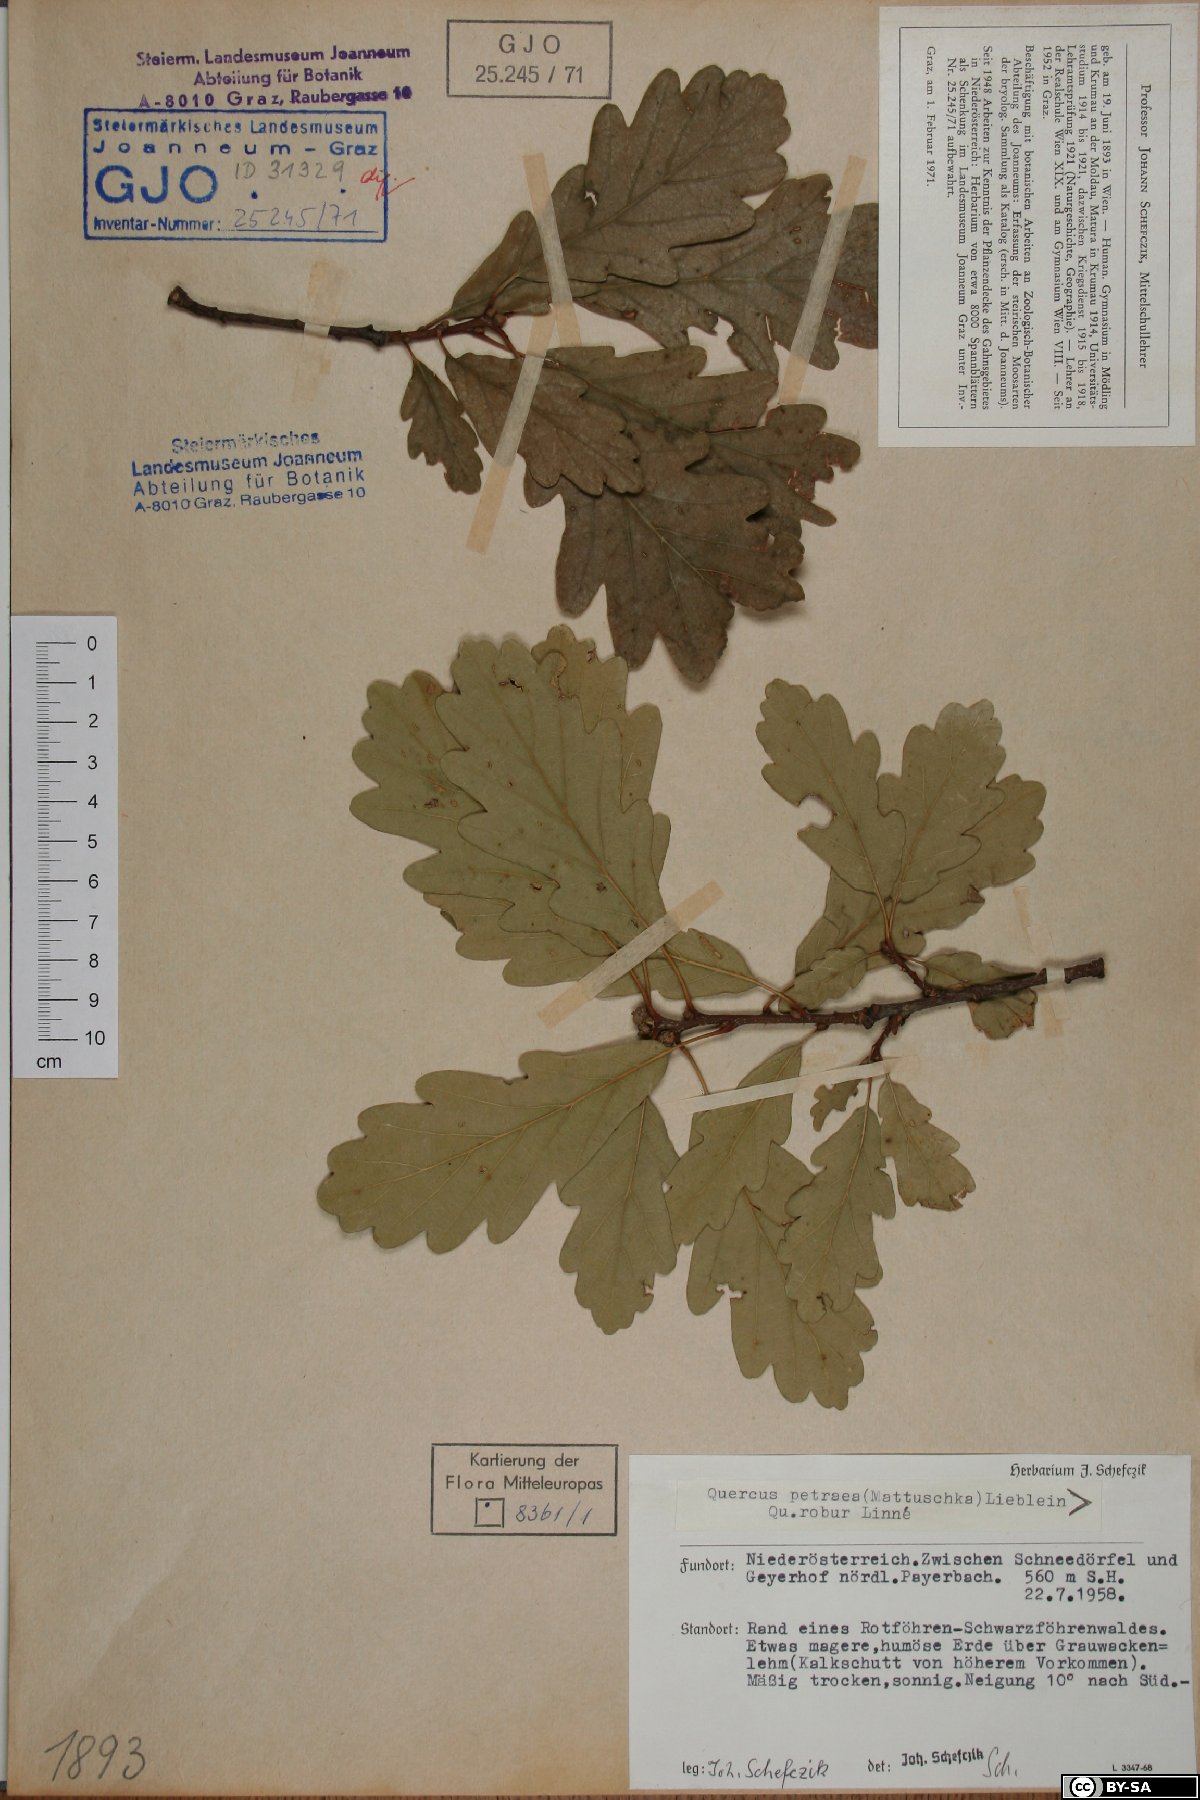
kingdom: Plantae
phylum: Tracheophyta
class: Magnoliopsida
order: Fagales
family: Fagaceae
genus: Quercus
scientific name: Quercus petraea
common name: Sessile oak
